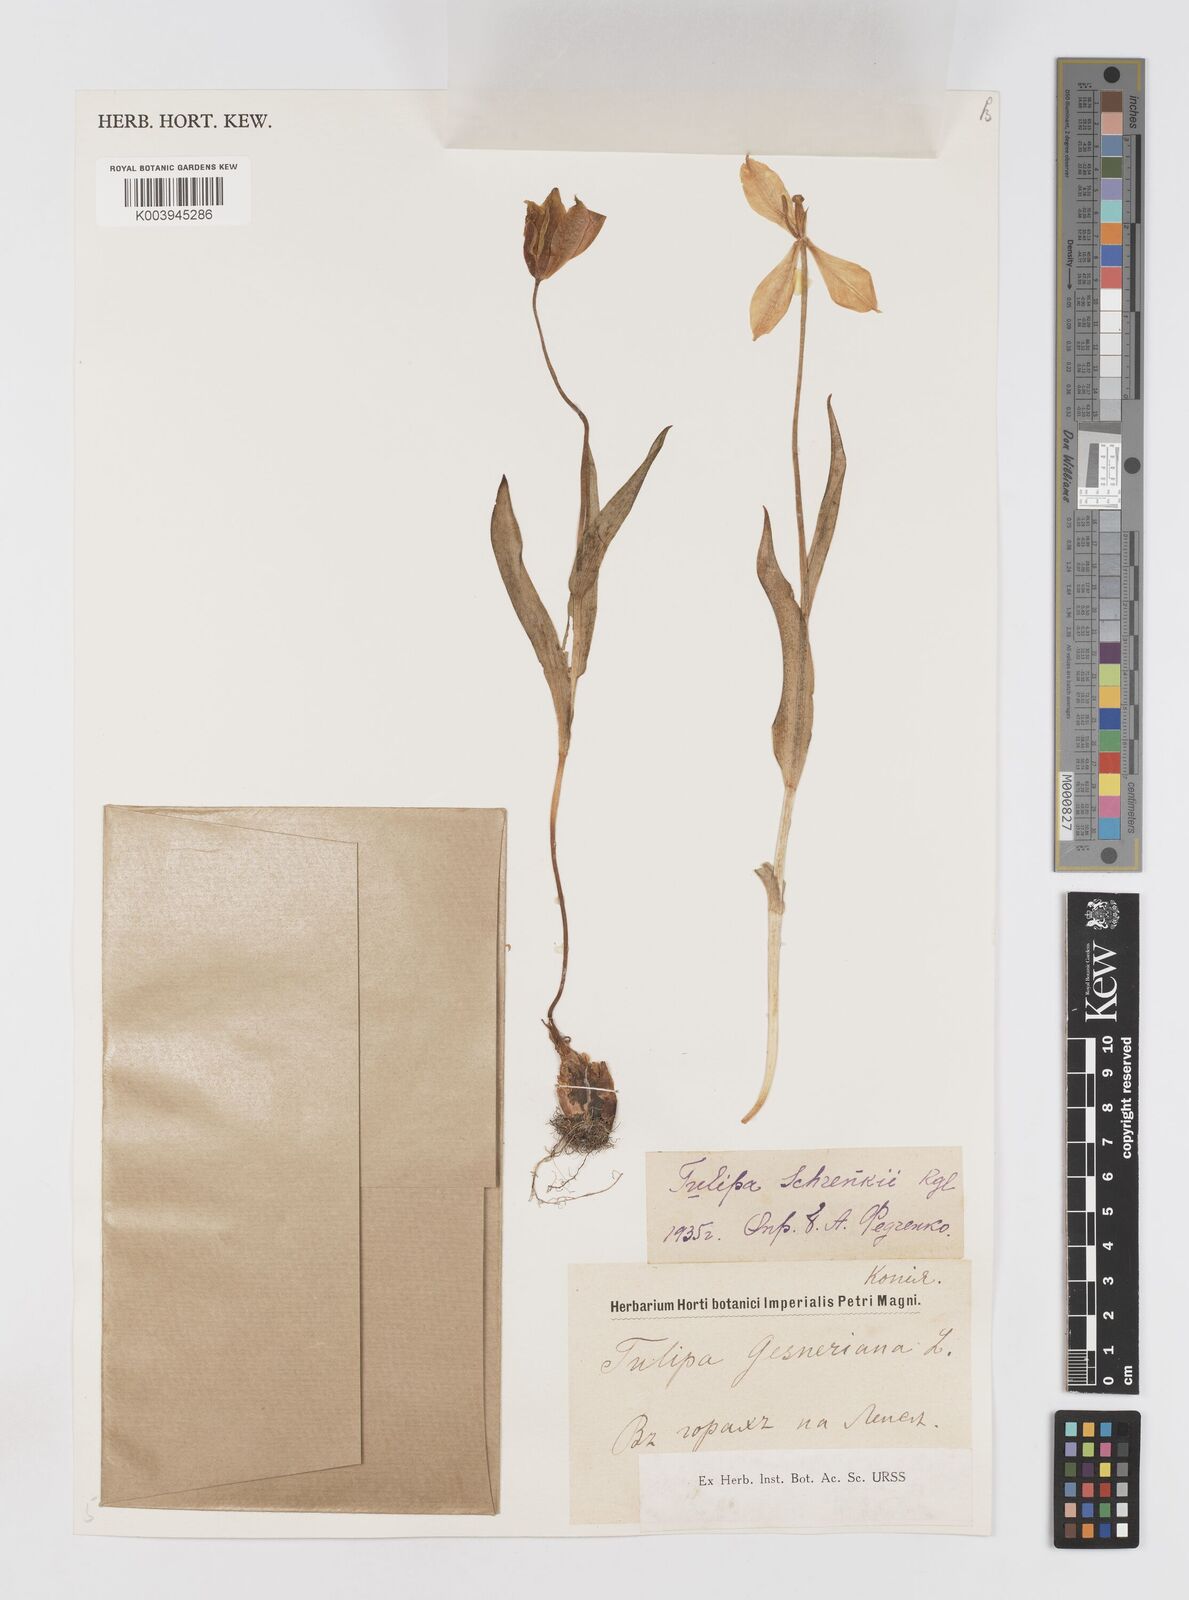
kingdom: Plantae
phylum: Tracheophyta
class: Liliopsida
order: Liliales
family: Liliaceae
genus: Tulipa
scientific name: Tulipa suaveolens
